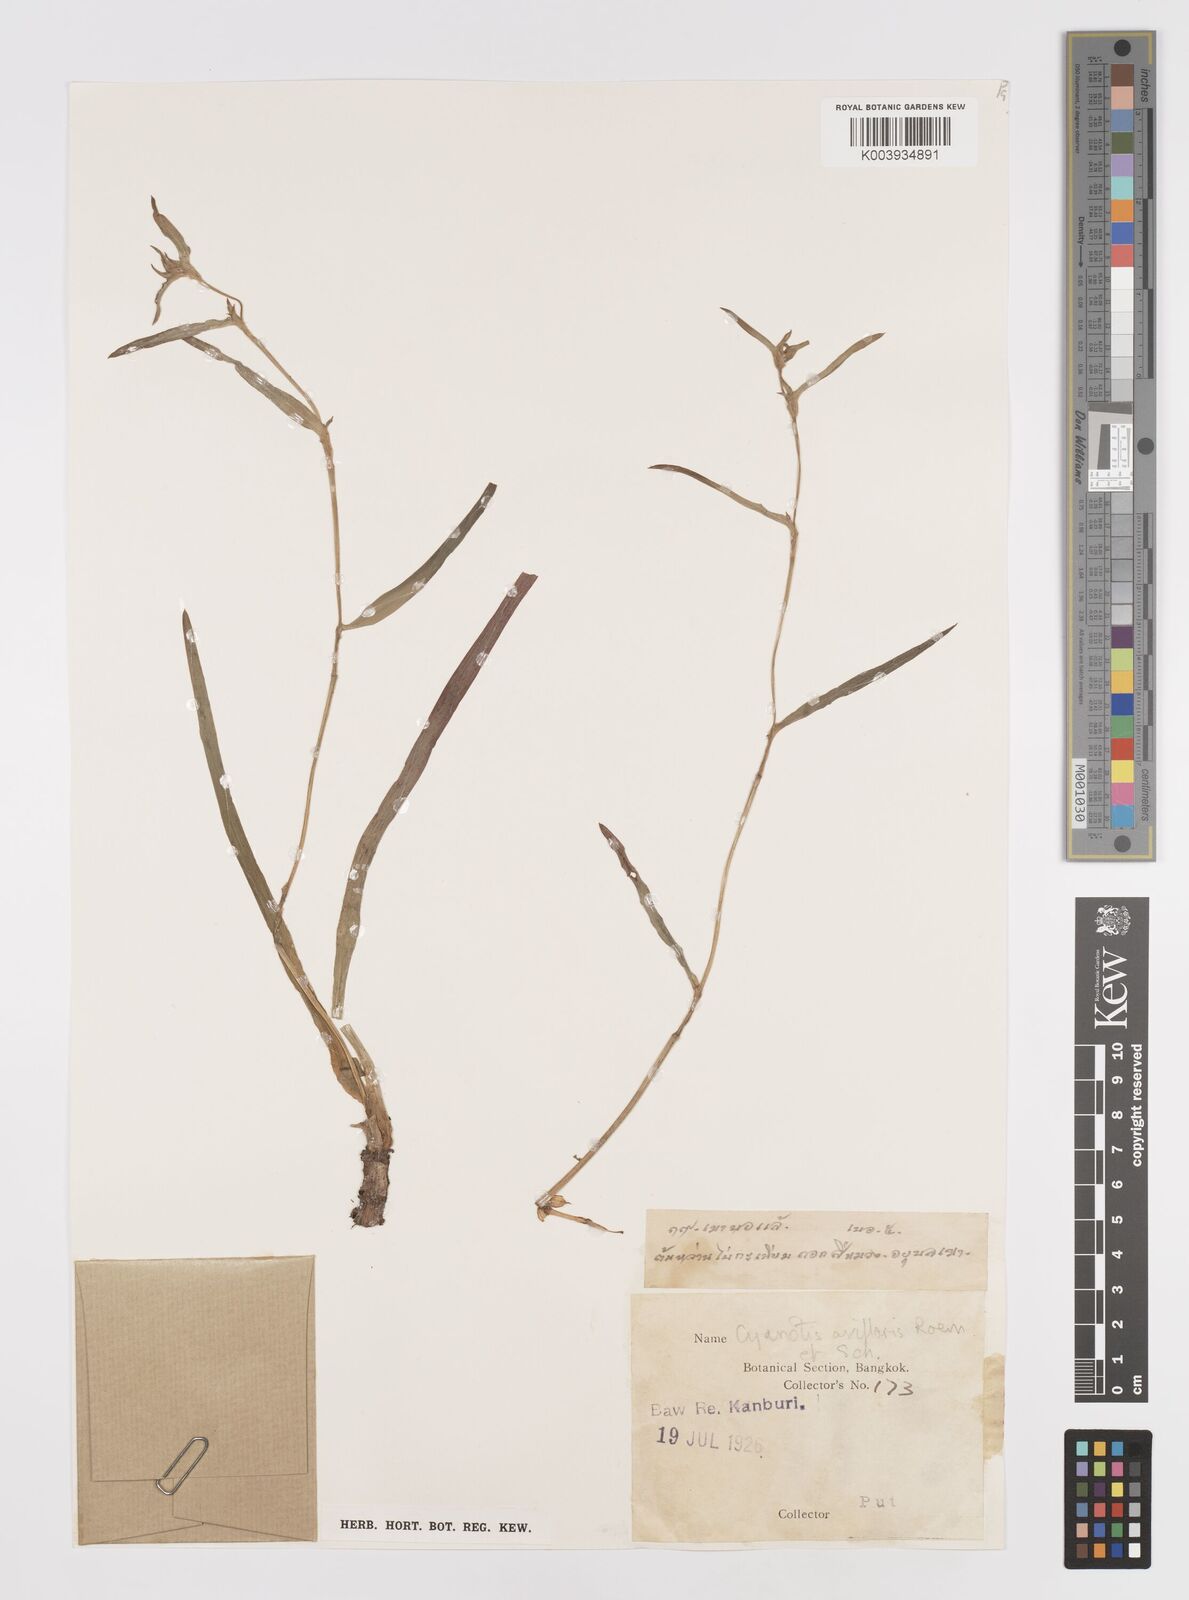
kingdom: Plantae
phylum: Tracheophyta
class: Liliopsida
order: Commelinales
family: Commelinaceae
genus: Cyanotis
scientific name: Cyanotis axillaris
